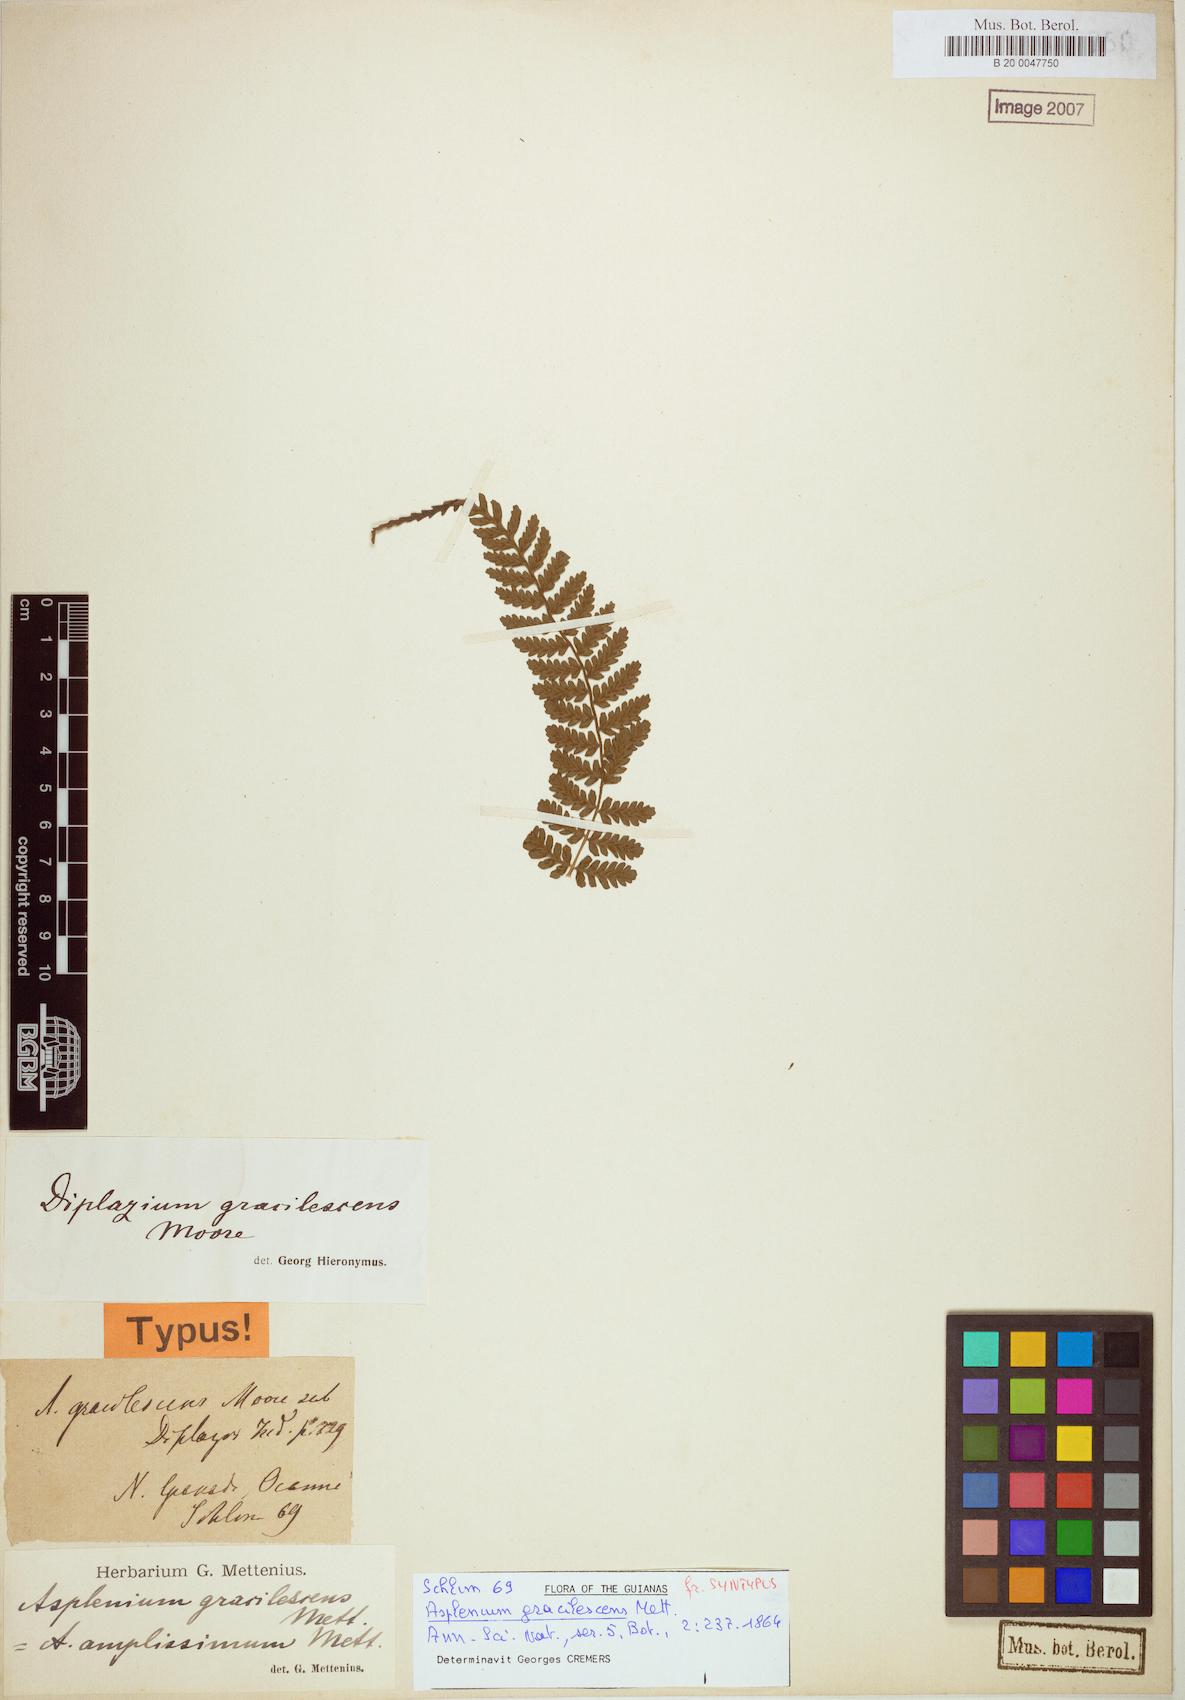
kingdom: Plantae
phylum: Tracheophyta
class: Polypodiopsida
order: Polypodiales
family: Athyriaceae
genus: Diplazium
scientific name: Diplazium gracilescens
